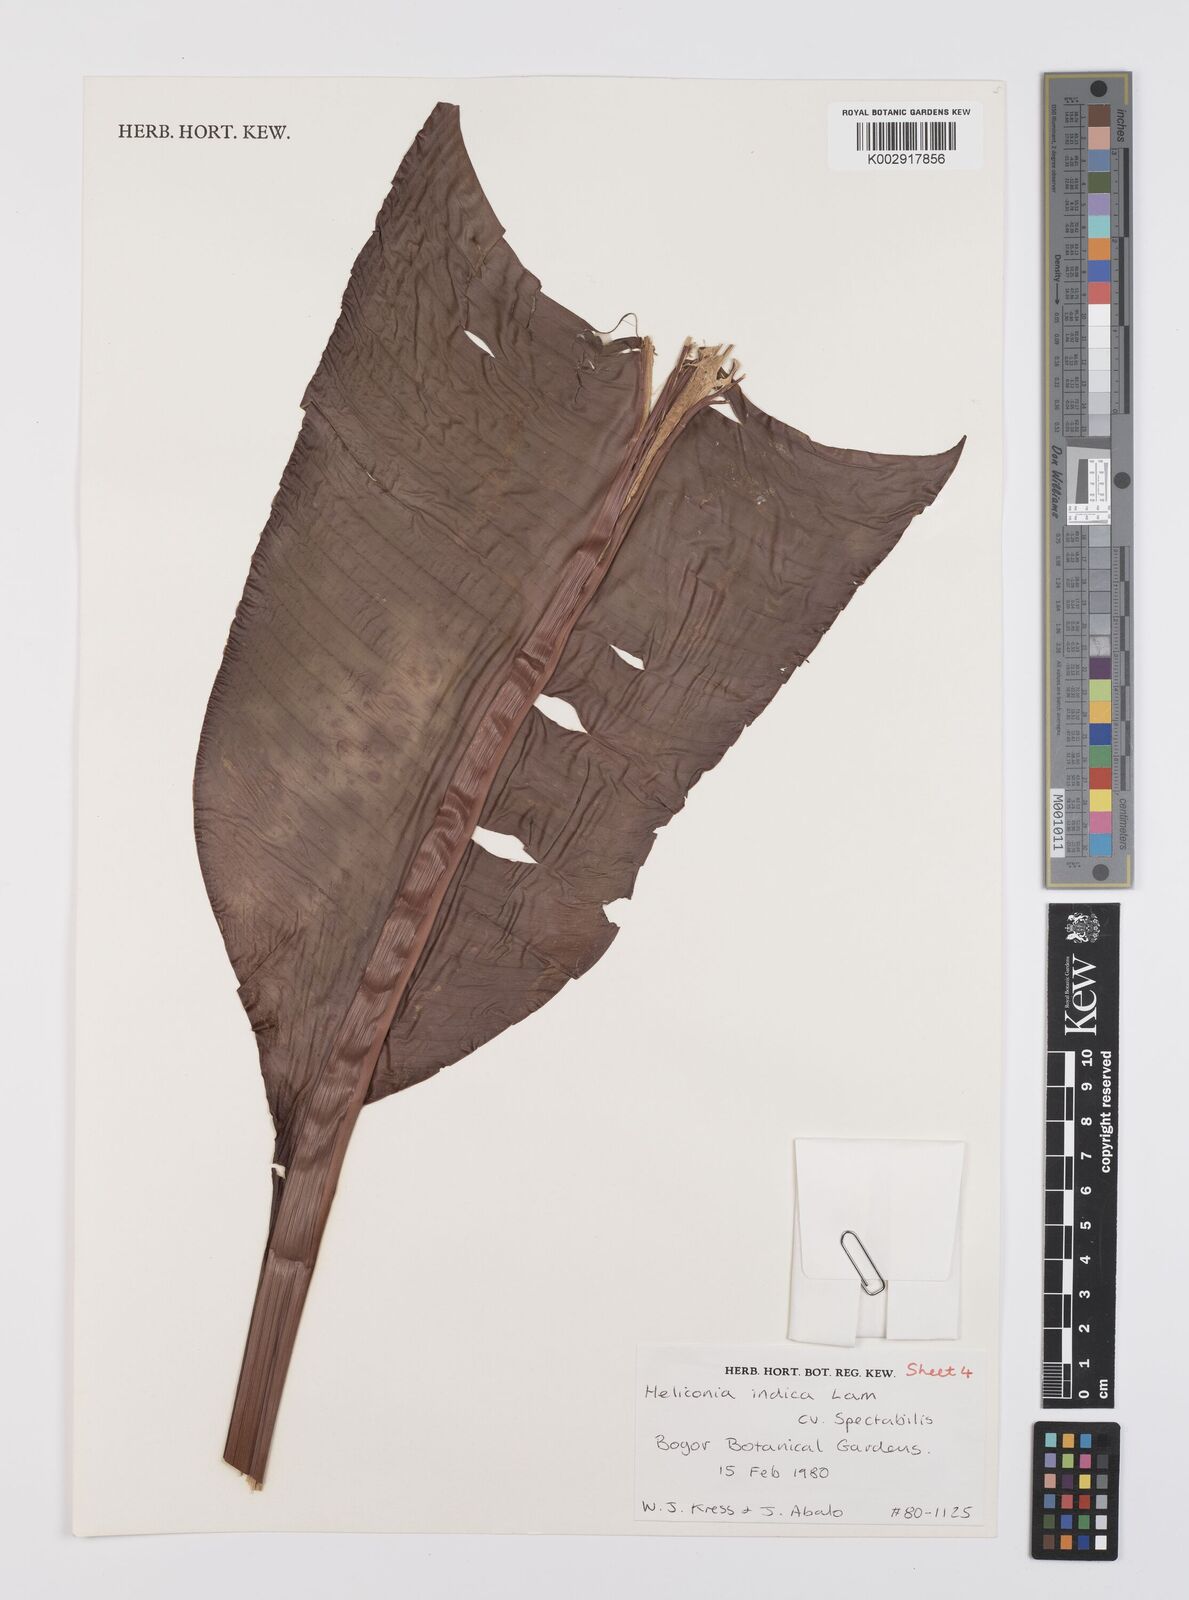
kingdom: Plantae
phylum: Tracheophyta
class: Liliopsida
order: Zingiberales
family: Heliconiaceae
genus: Heliconia
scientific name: Heliconia indica
